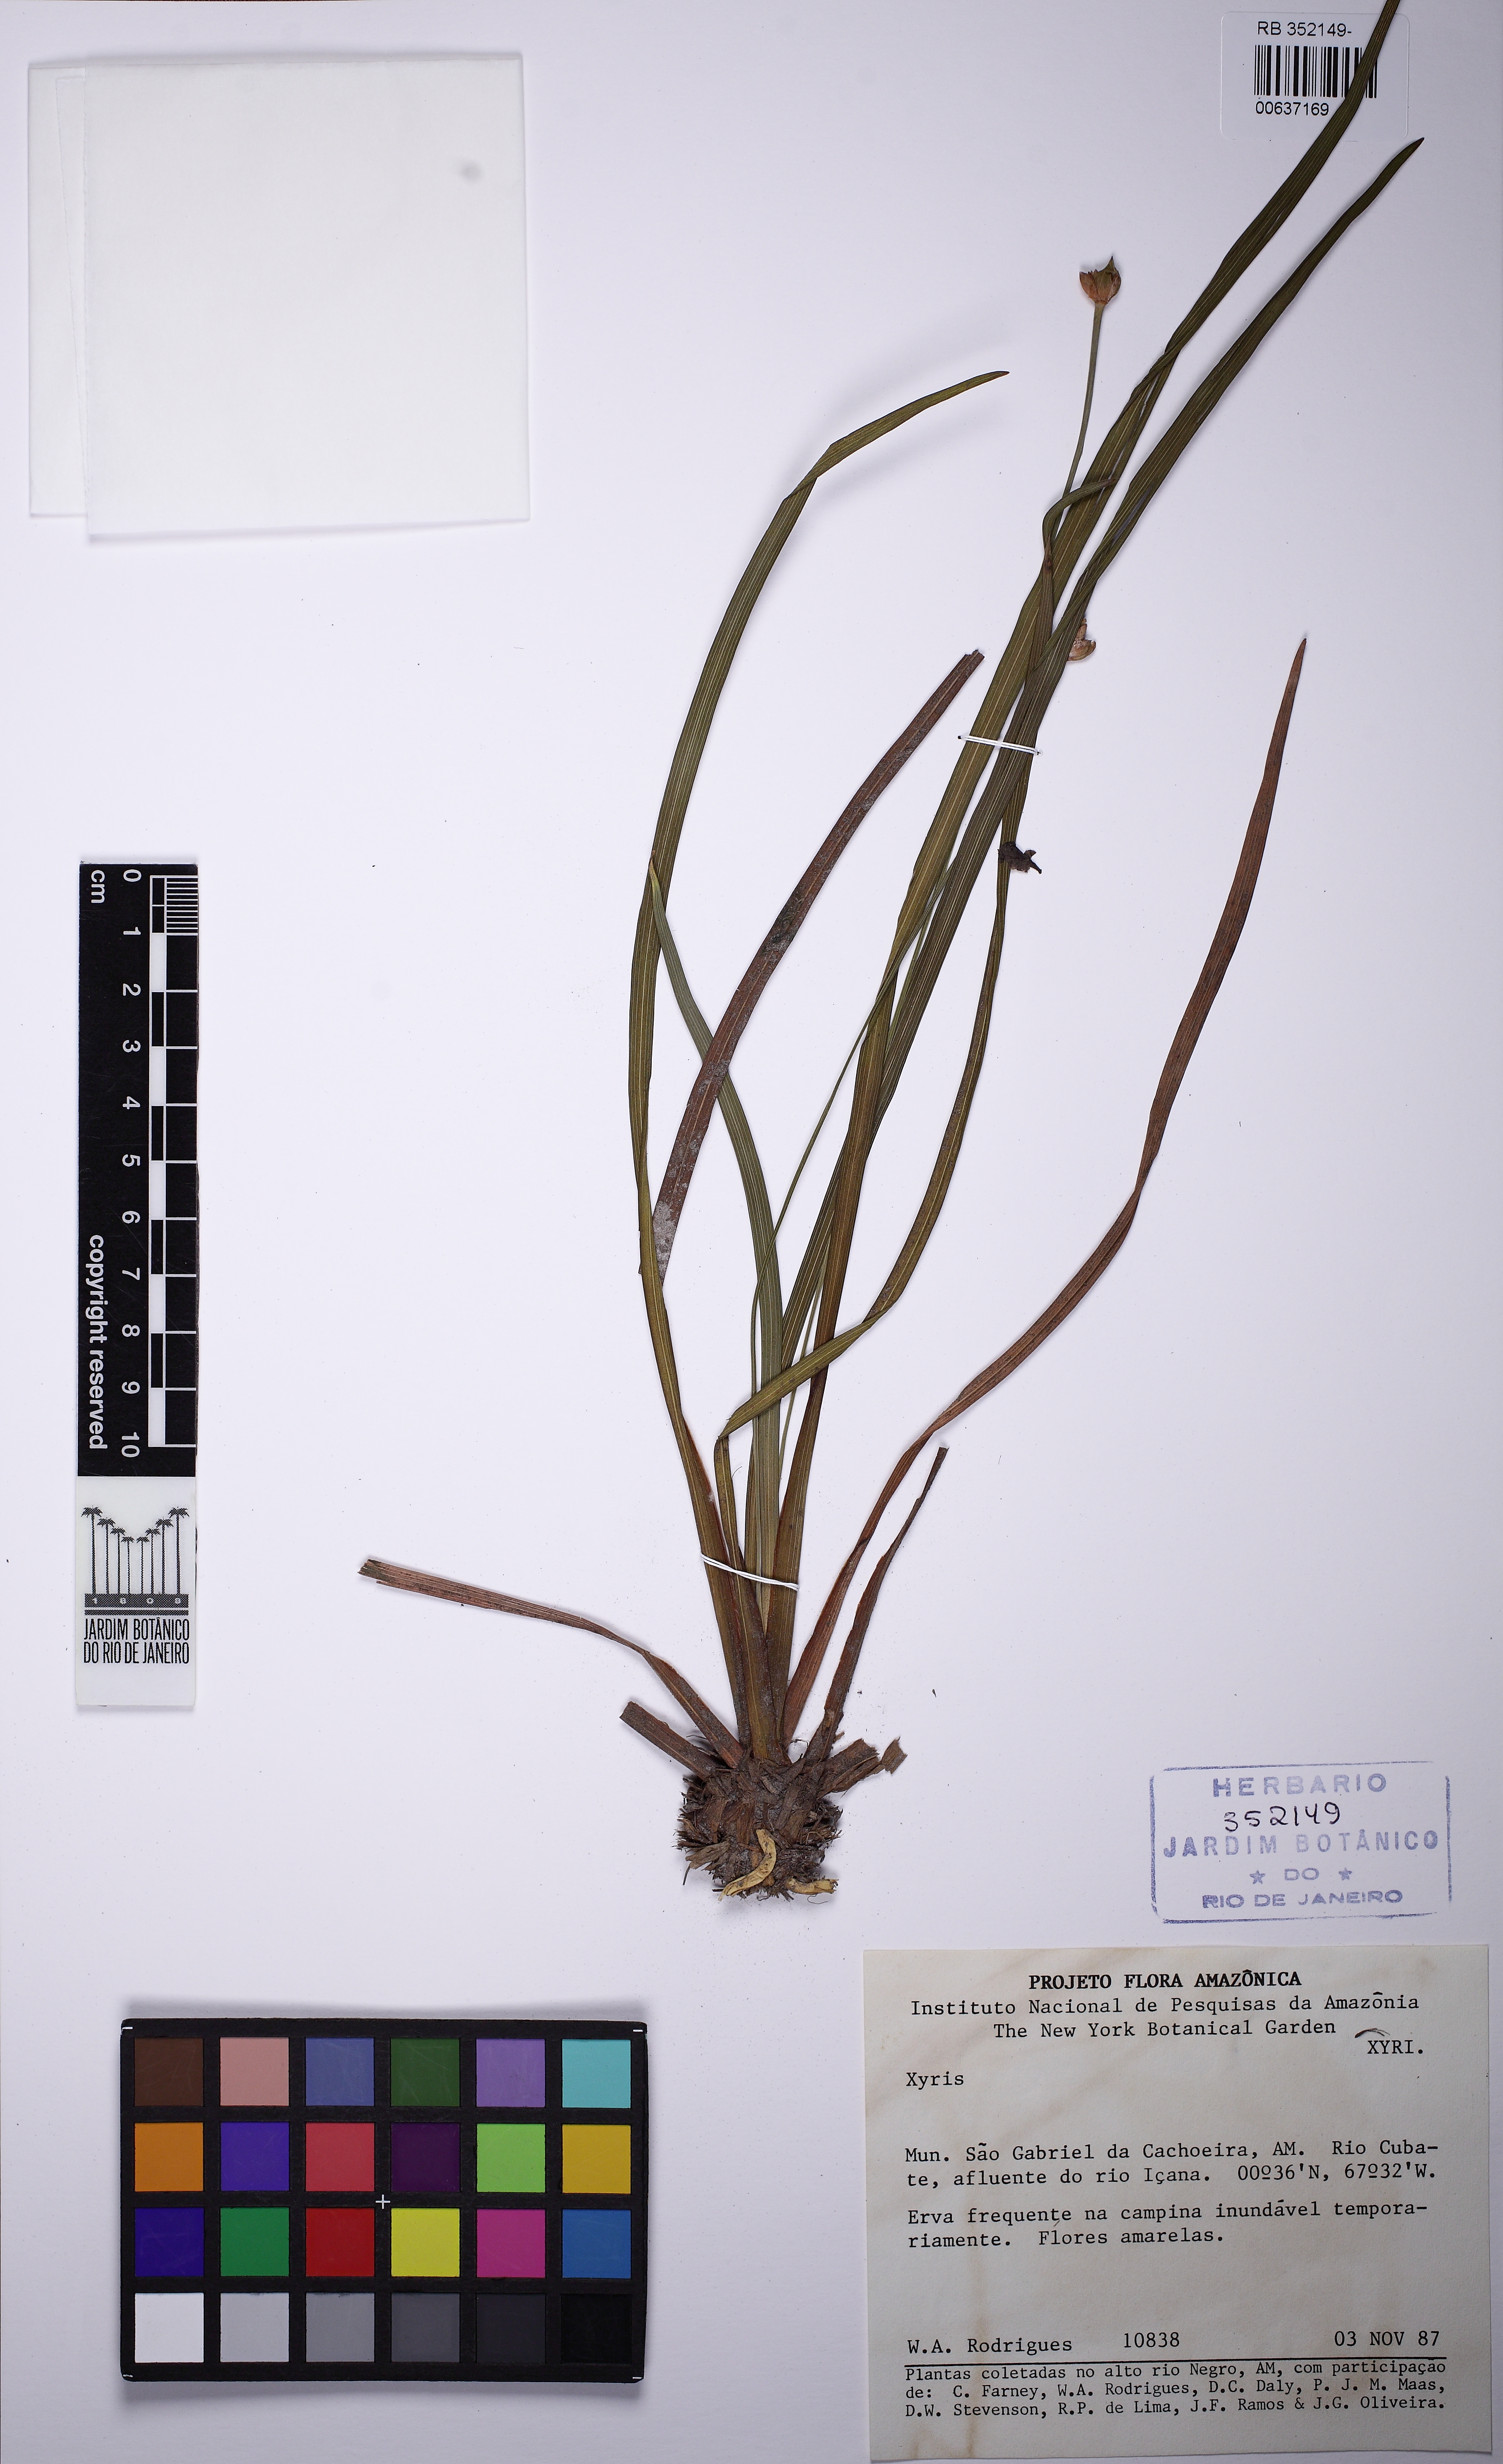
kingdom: Plantae
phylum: Tracheophyta
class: Liliopsida
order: Poales
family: Rapateaceae
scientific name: Rapateaceae
